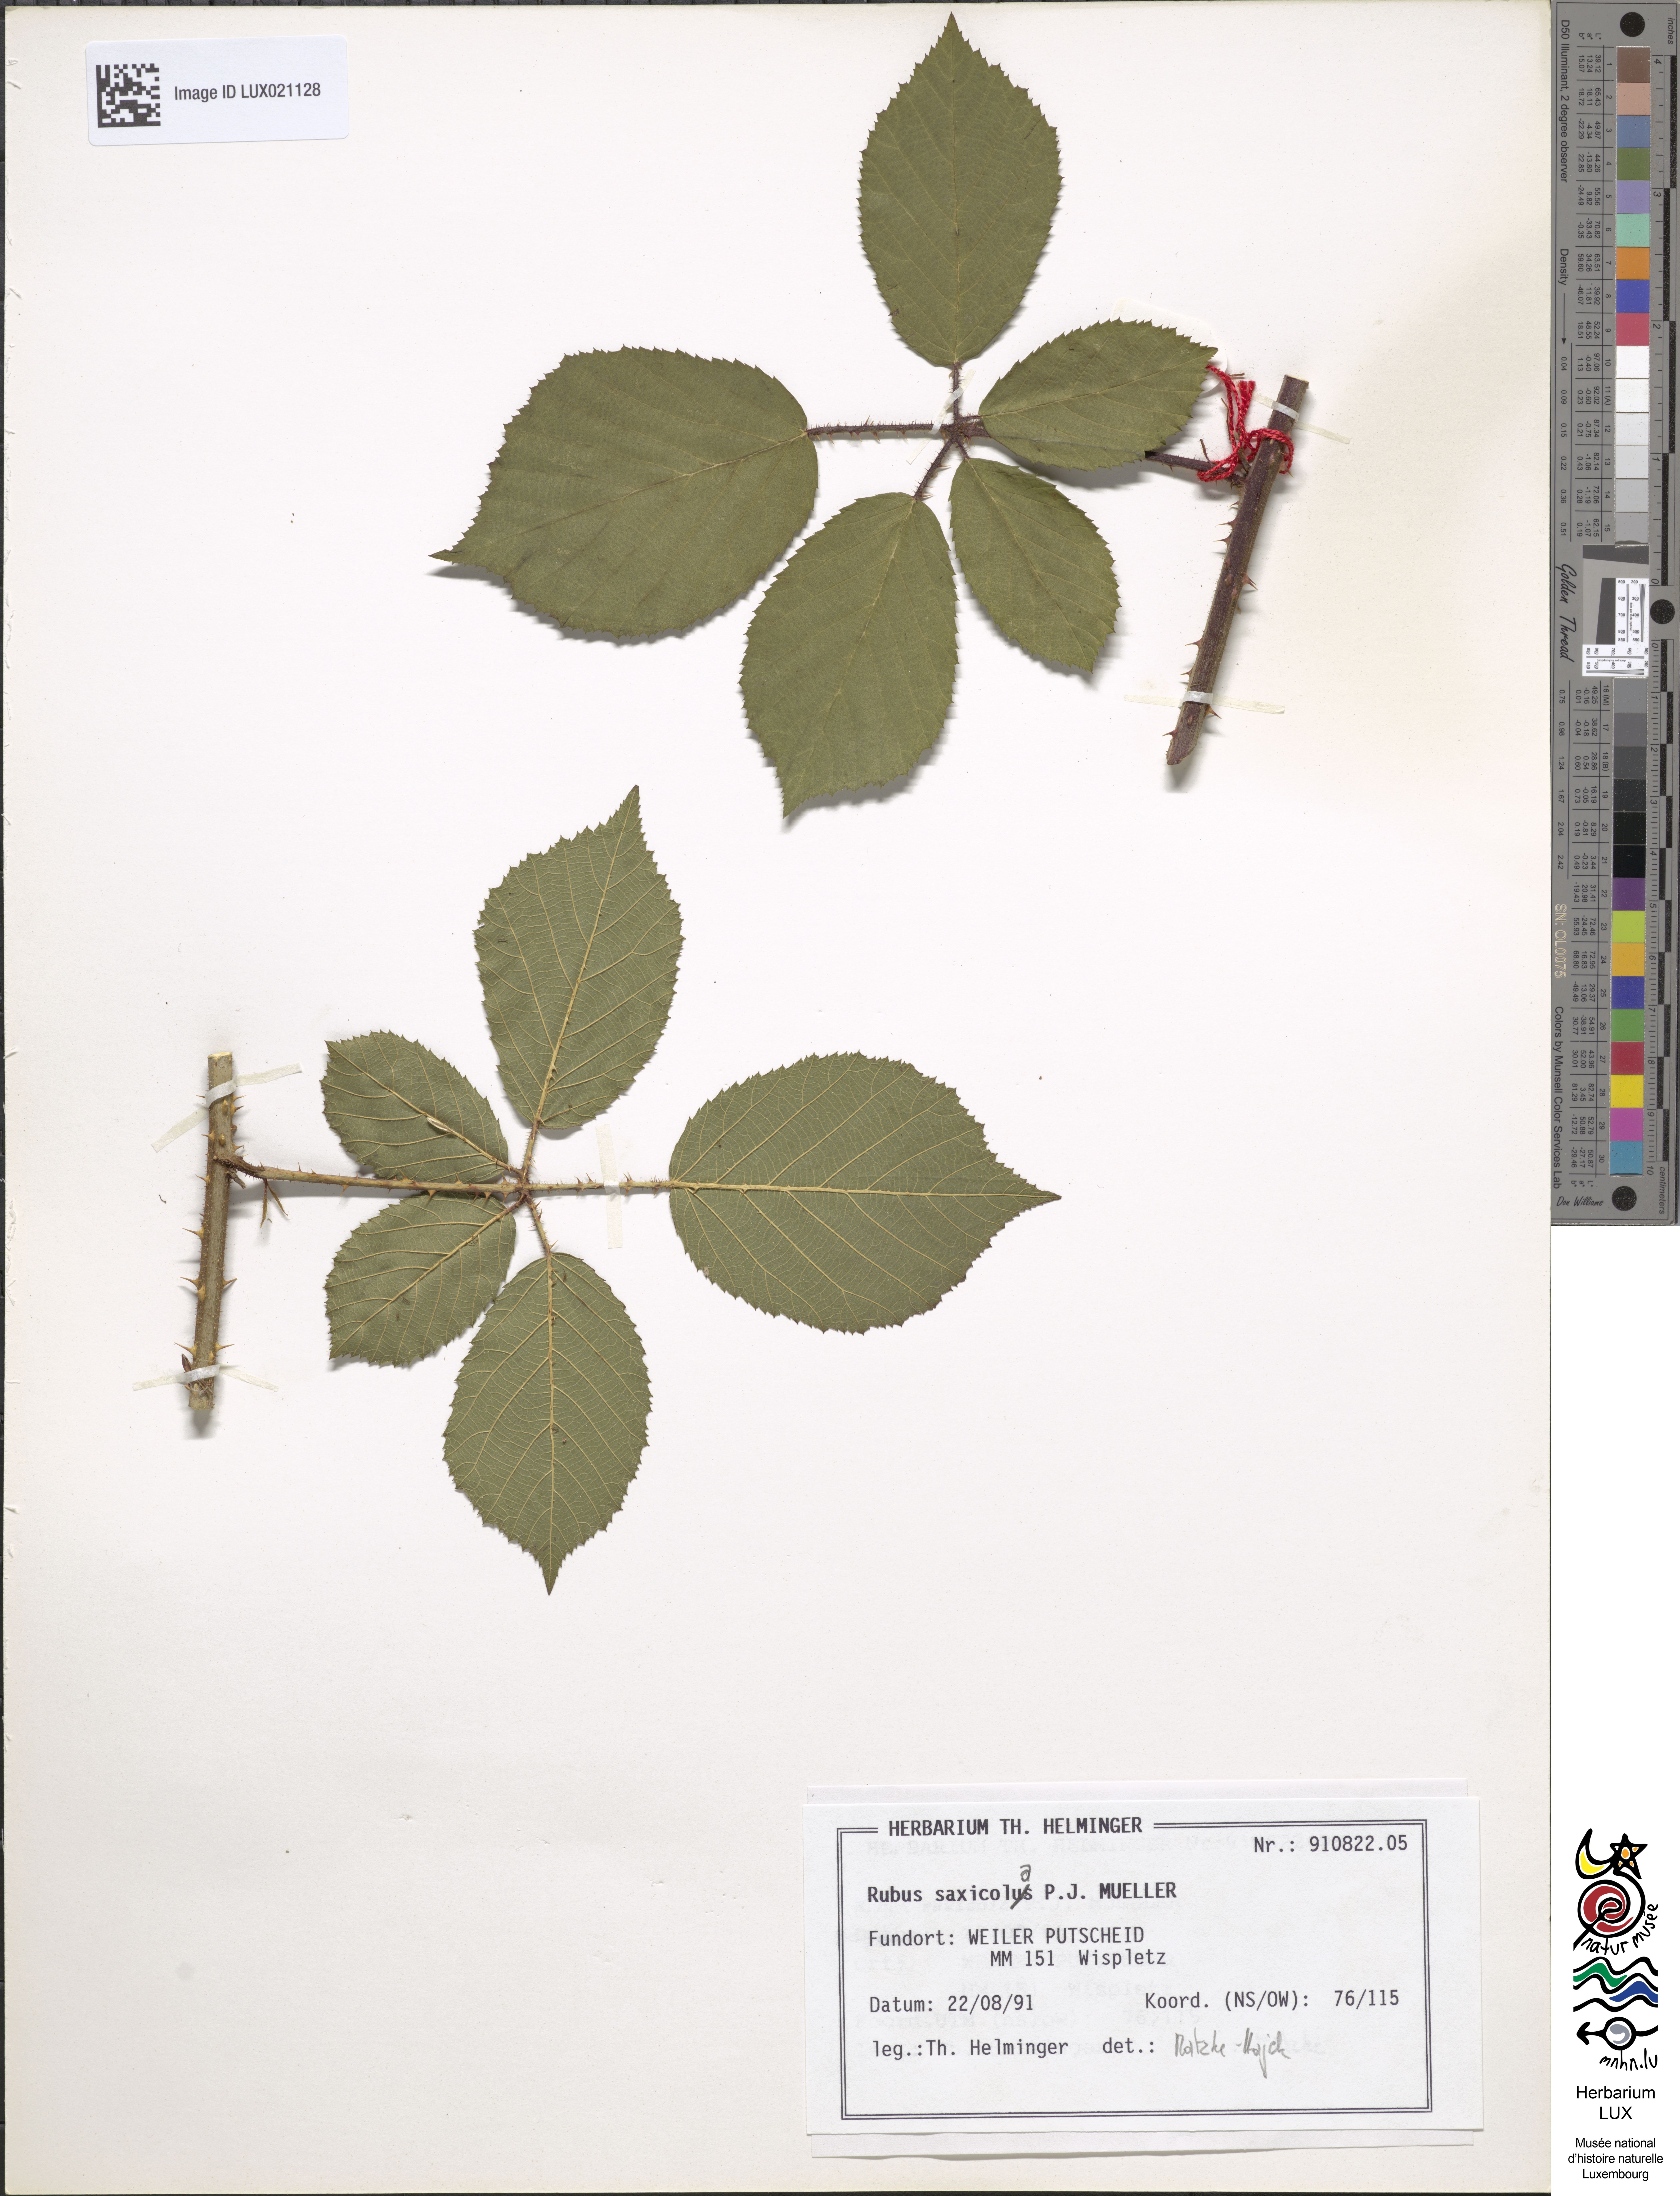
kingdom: Plantae
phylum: Tracheophyta
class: Magnoliopsida
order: Rosales
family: Rosaceae
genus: Rubus
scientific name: Rubus saxicola
